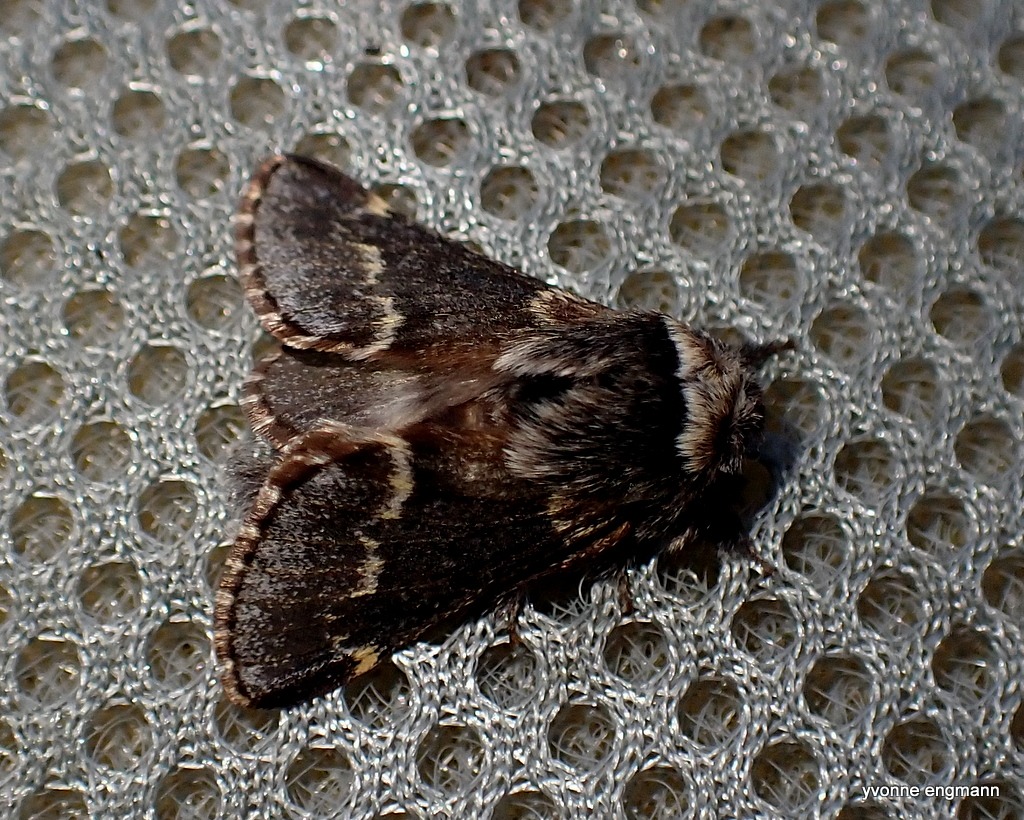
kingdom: Animalia
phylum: Arthropoda
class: Insecta
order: Lepidoptera
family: Lasiocampidae
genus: Poecilocampa
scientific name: Poecilocampa populi
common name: Poppelspinder
